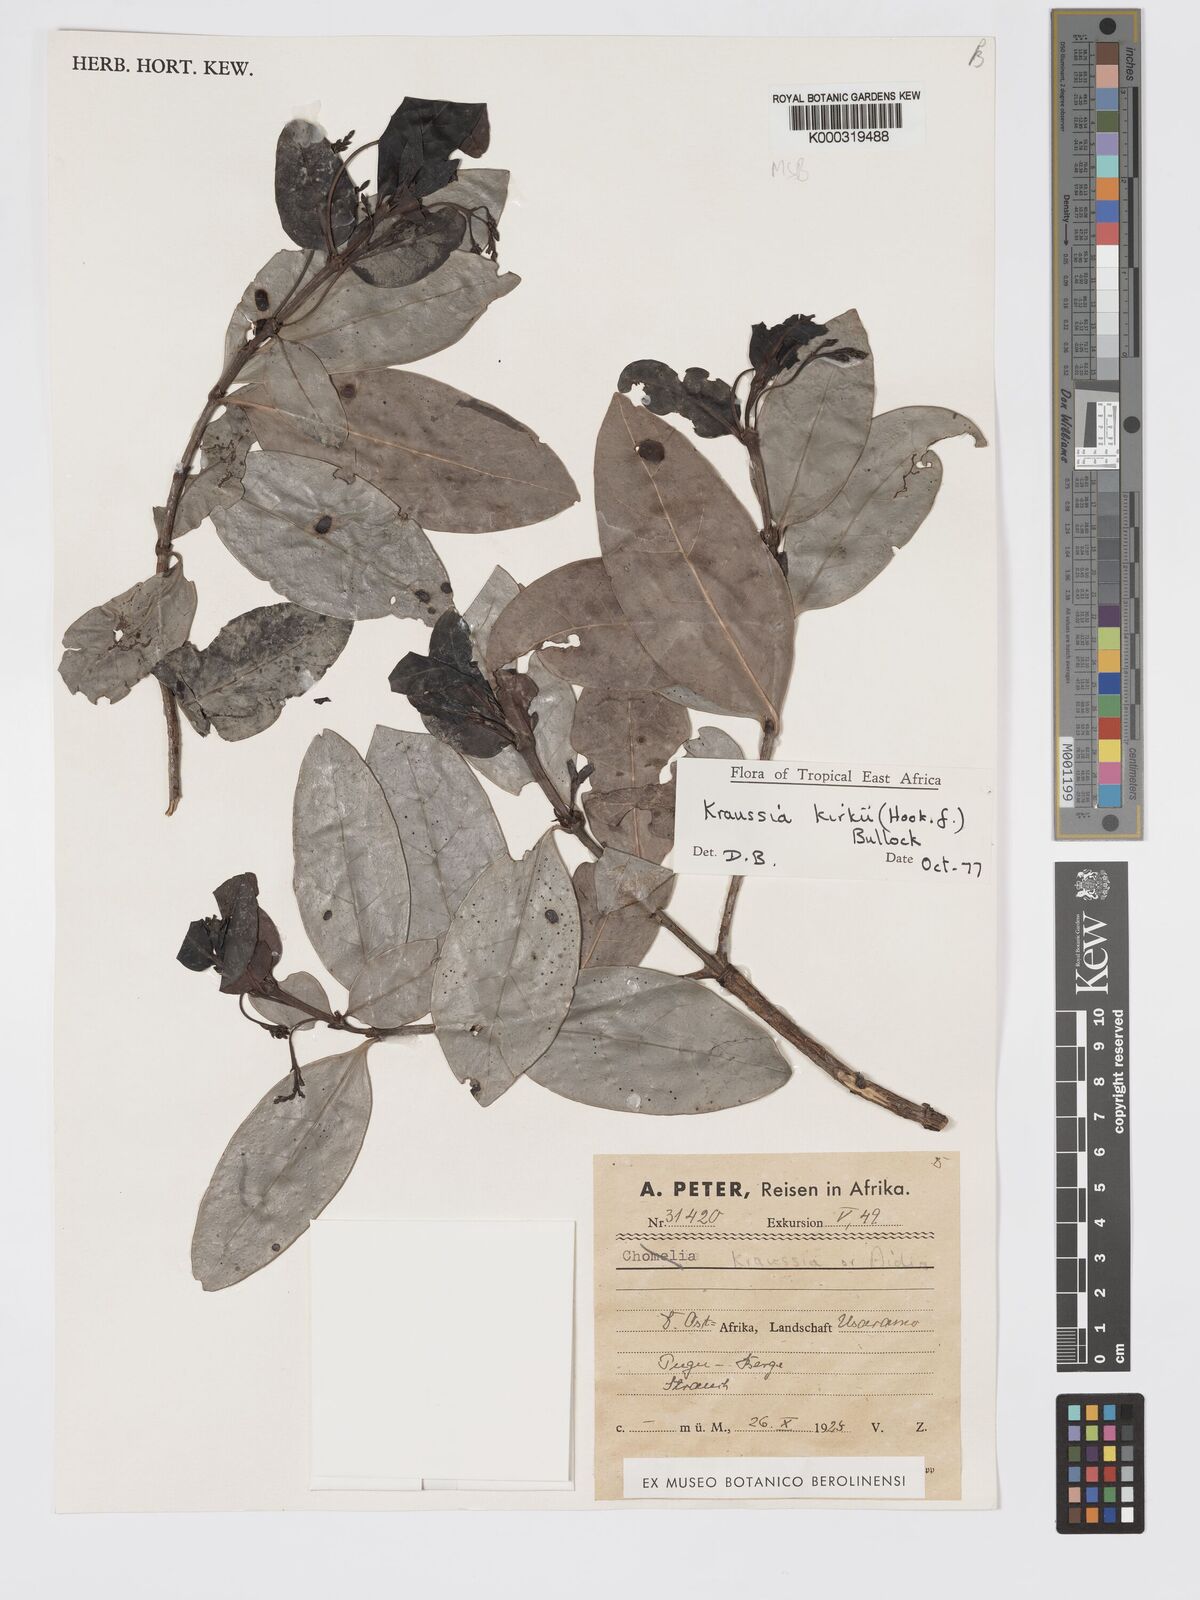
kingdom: Plantae
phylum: Tracheophyta
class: Magnoliopsida
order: Gentianales
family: Rubiaceae
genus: Kraussia
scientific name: Kraussia kirkii
